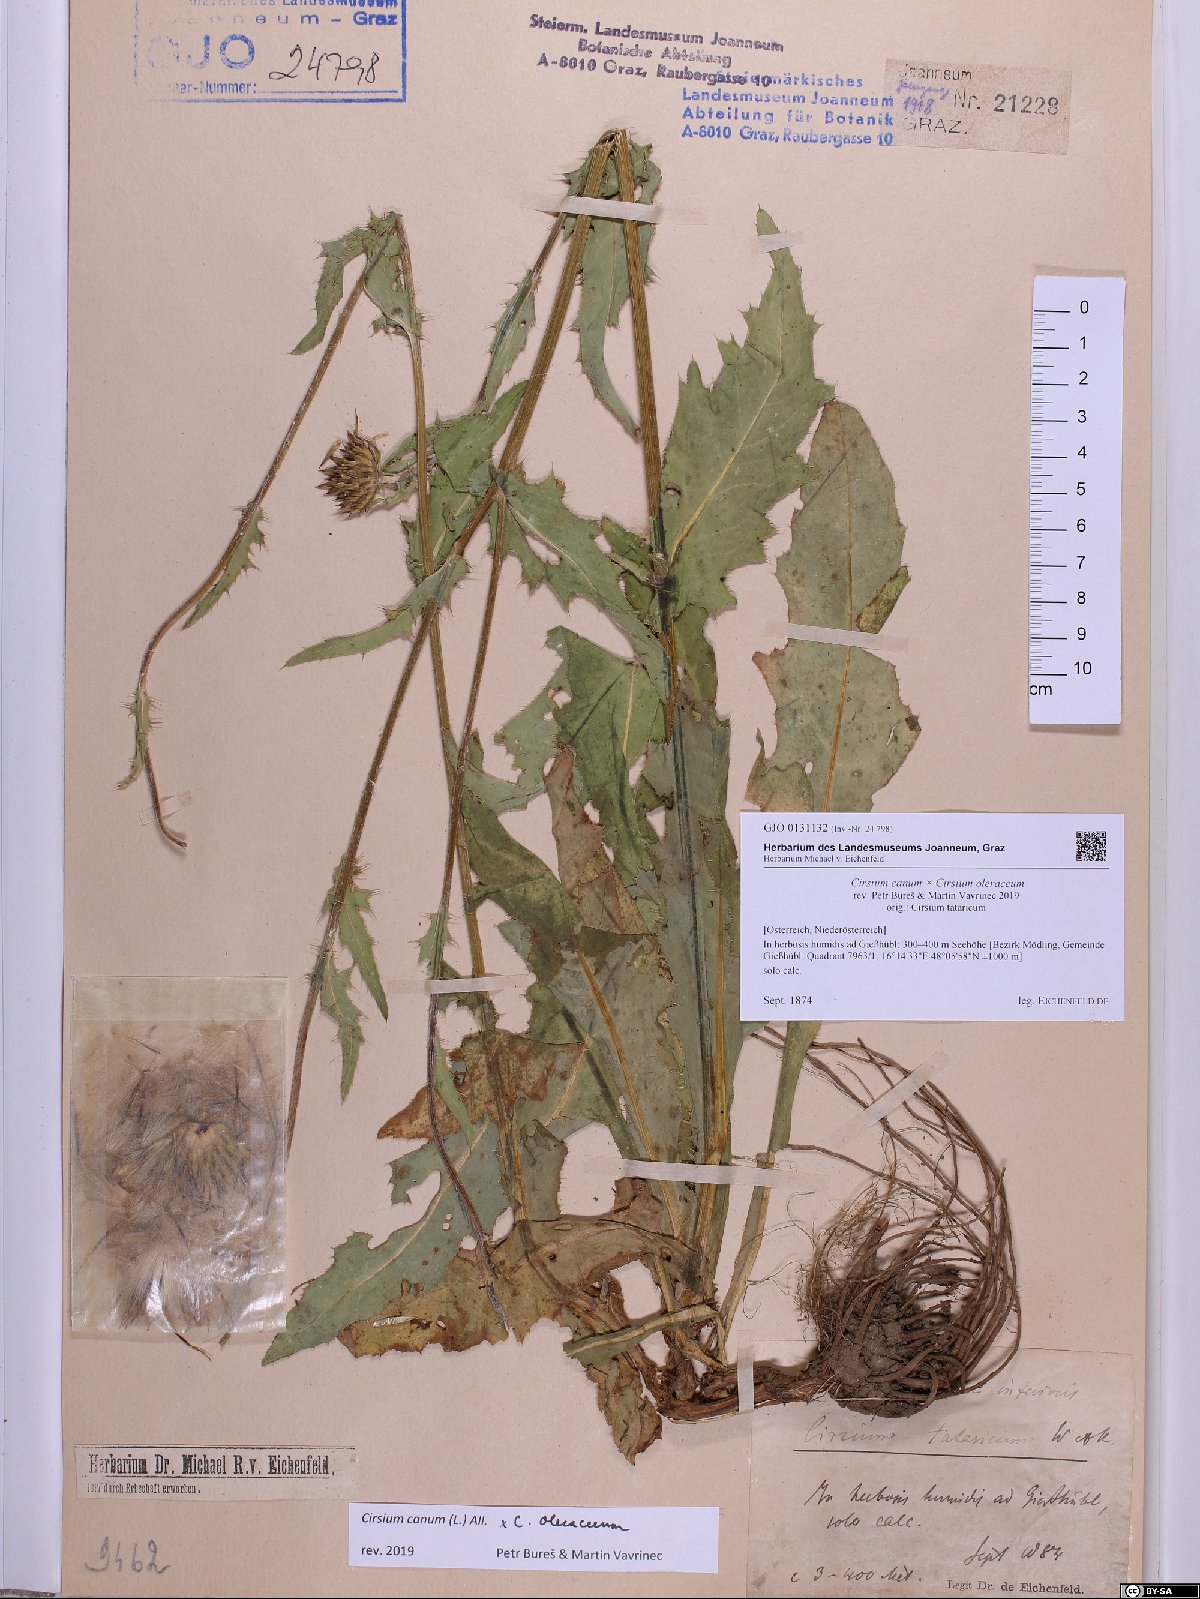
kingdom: Plantae
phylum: Tracheophyta
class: Magnoliopsida
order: Asterales
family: Asteraceae
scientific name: Asteraceae
